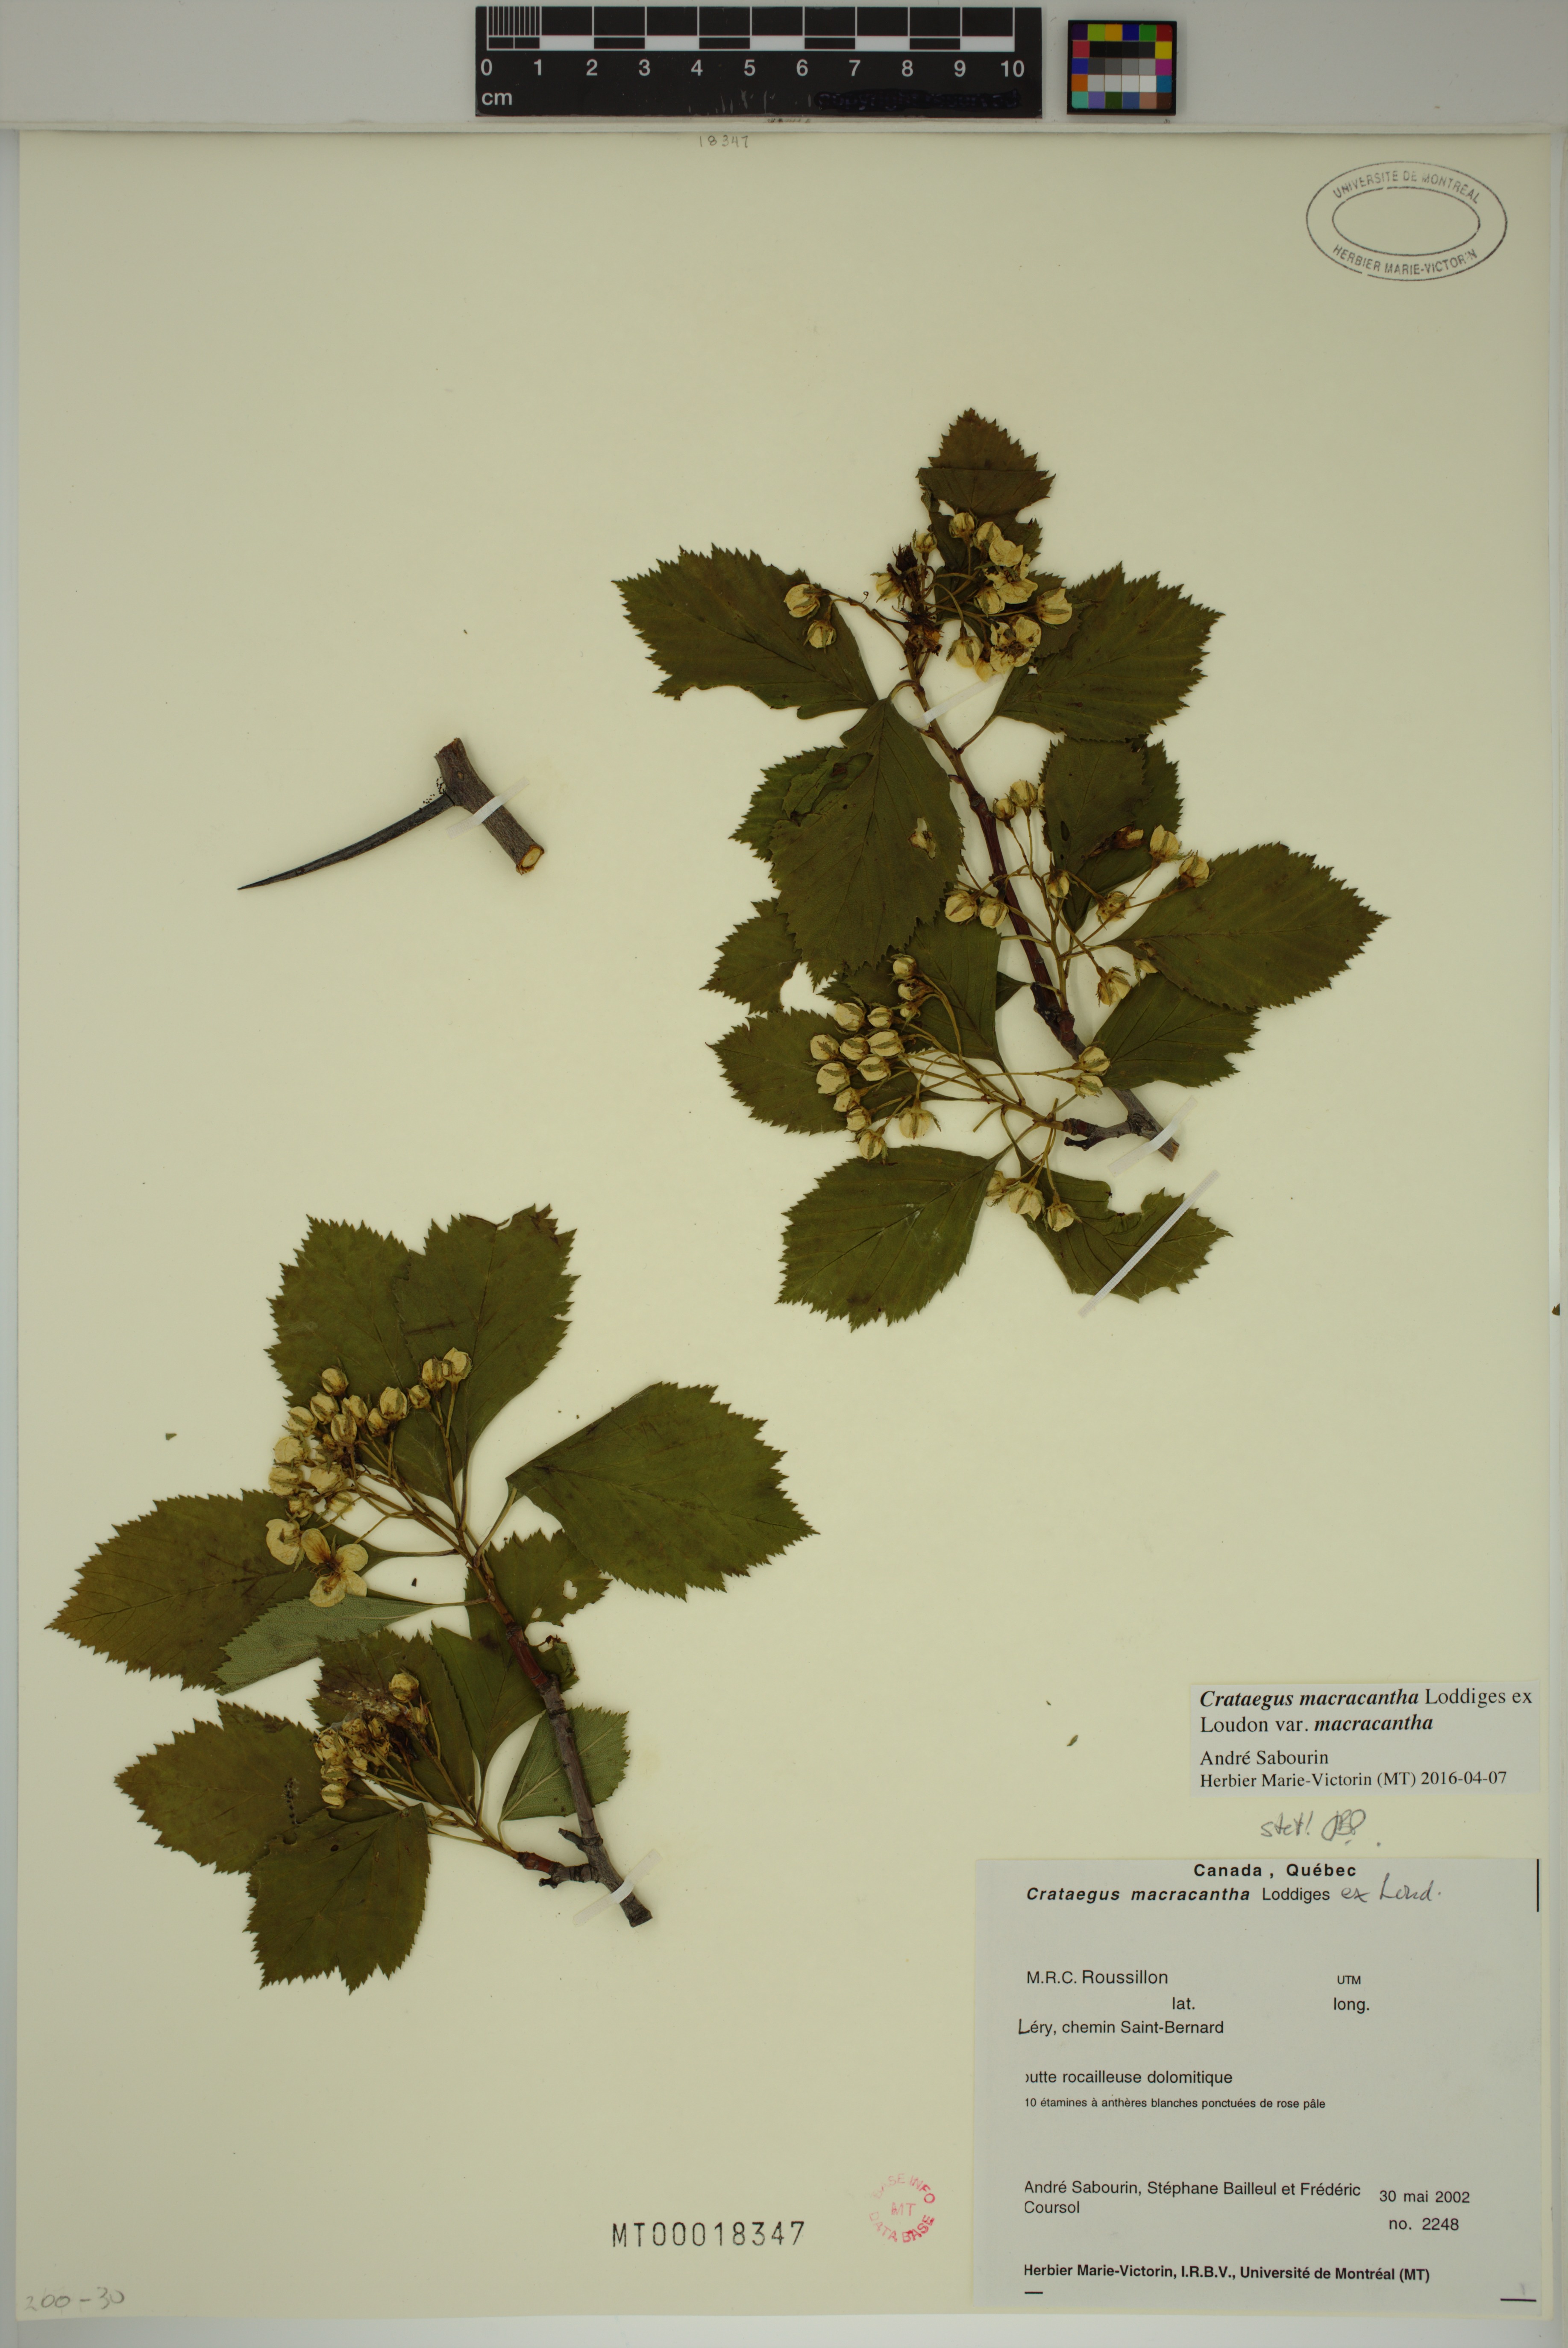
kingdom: Plantae
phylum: Tracheophyta
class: Magnoliopsida
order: Rosales
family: Rosaceae
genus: Crataegus
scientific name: Crataegus macracantha
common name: Large-thorn hawthorn
